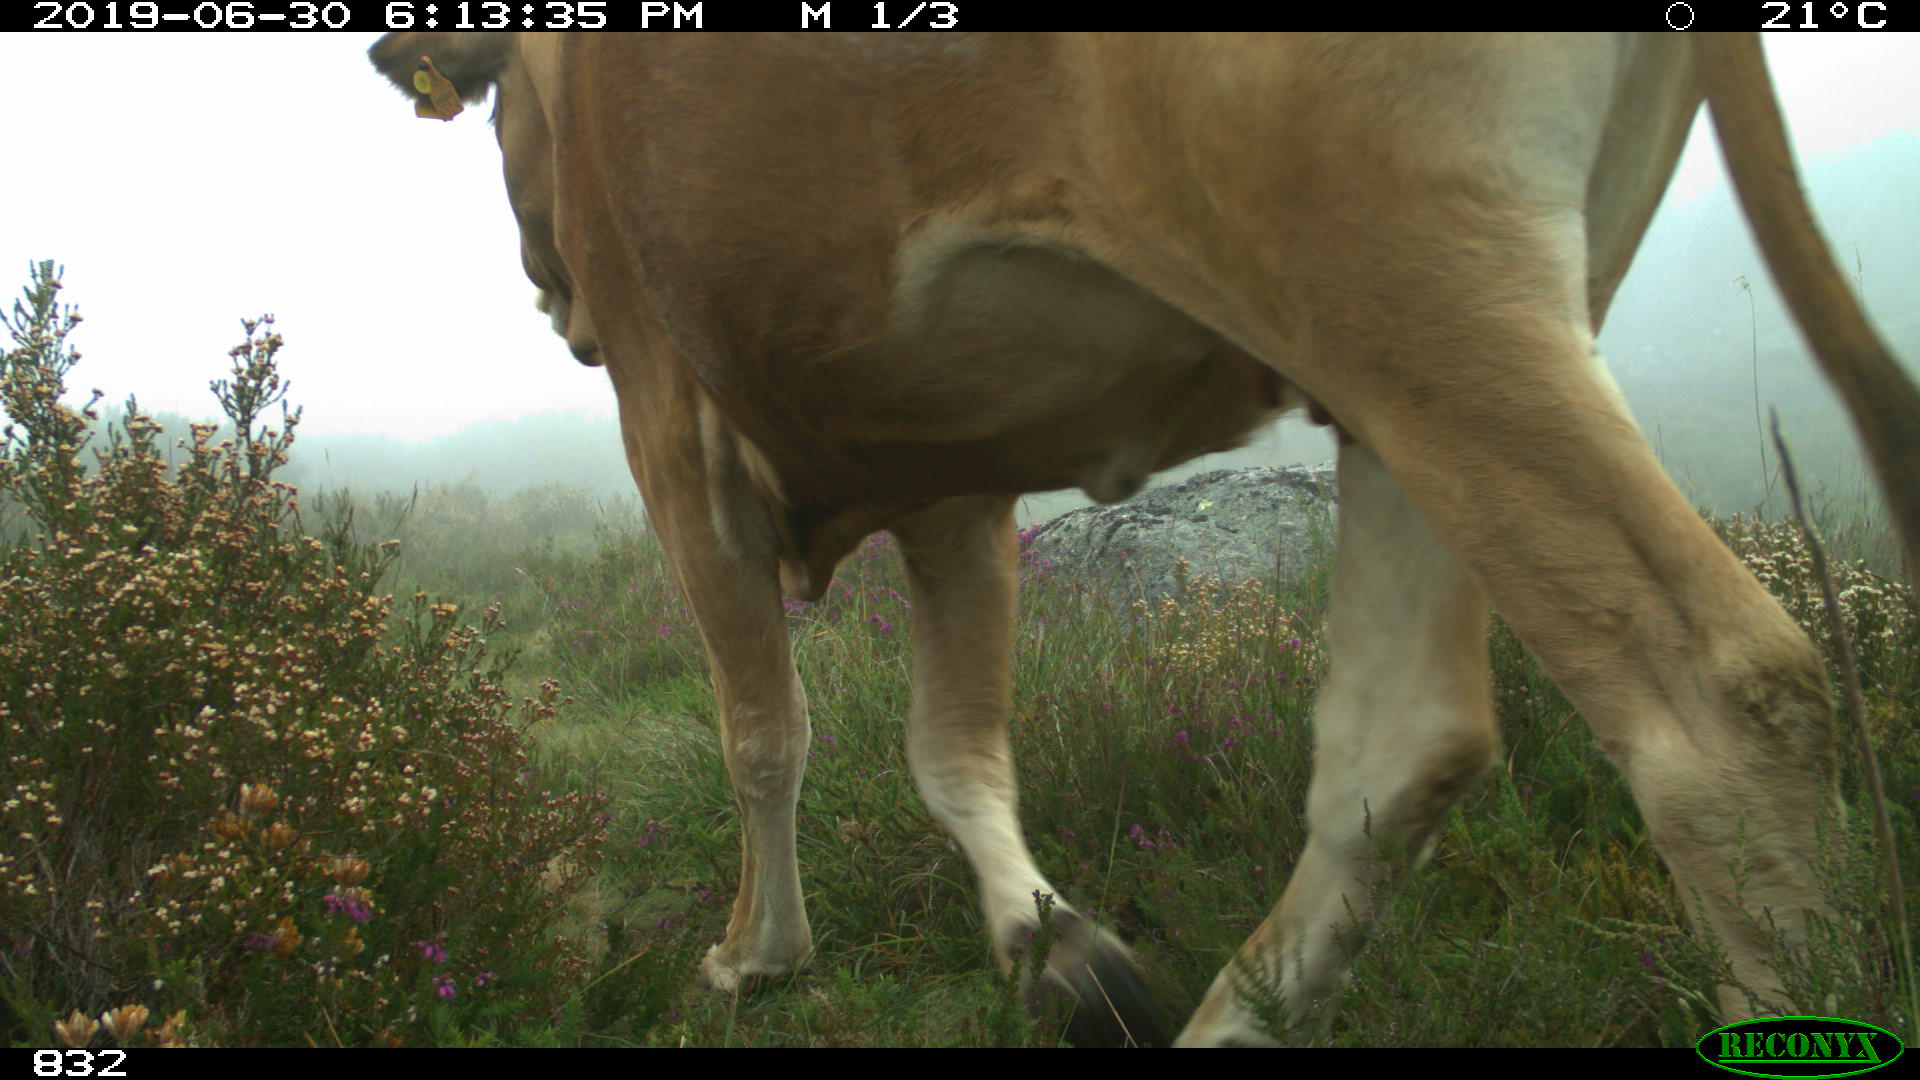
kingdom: Animalia
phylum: Chordata
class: Mammalia
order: Artiodactyla
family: Bovidae
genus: Bos
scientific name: Bos taurus
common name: Domesticated cattle
